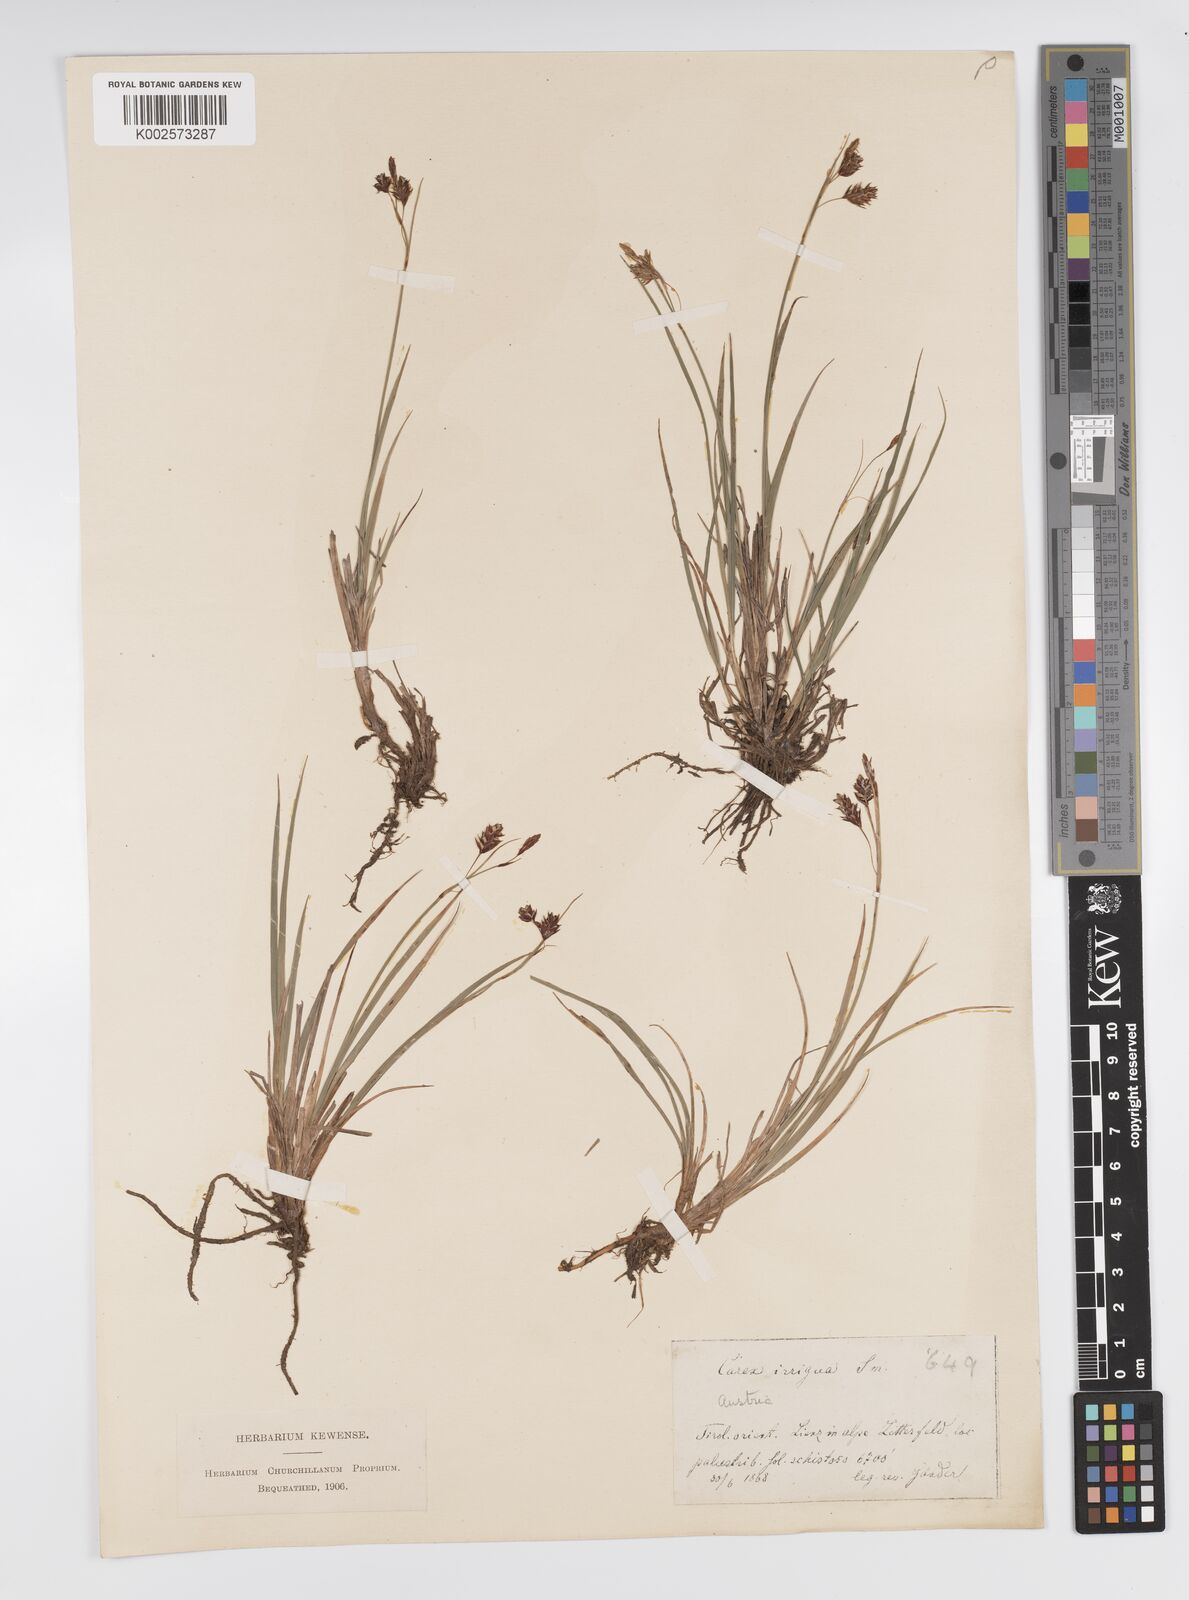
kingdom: Plantae
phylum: Tracheophyta
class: Liliopsida
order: Poales
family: Cyperaceae
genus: Carex
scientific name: Carex magellanica
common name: Bog sedge
